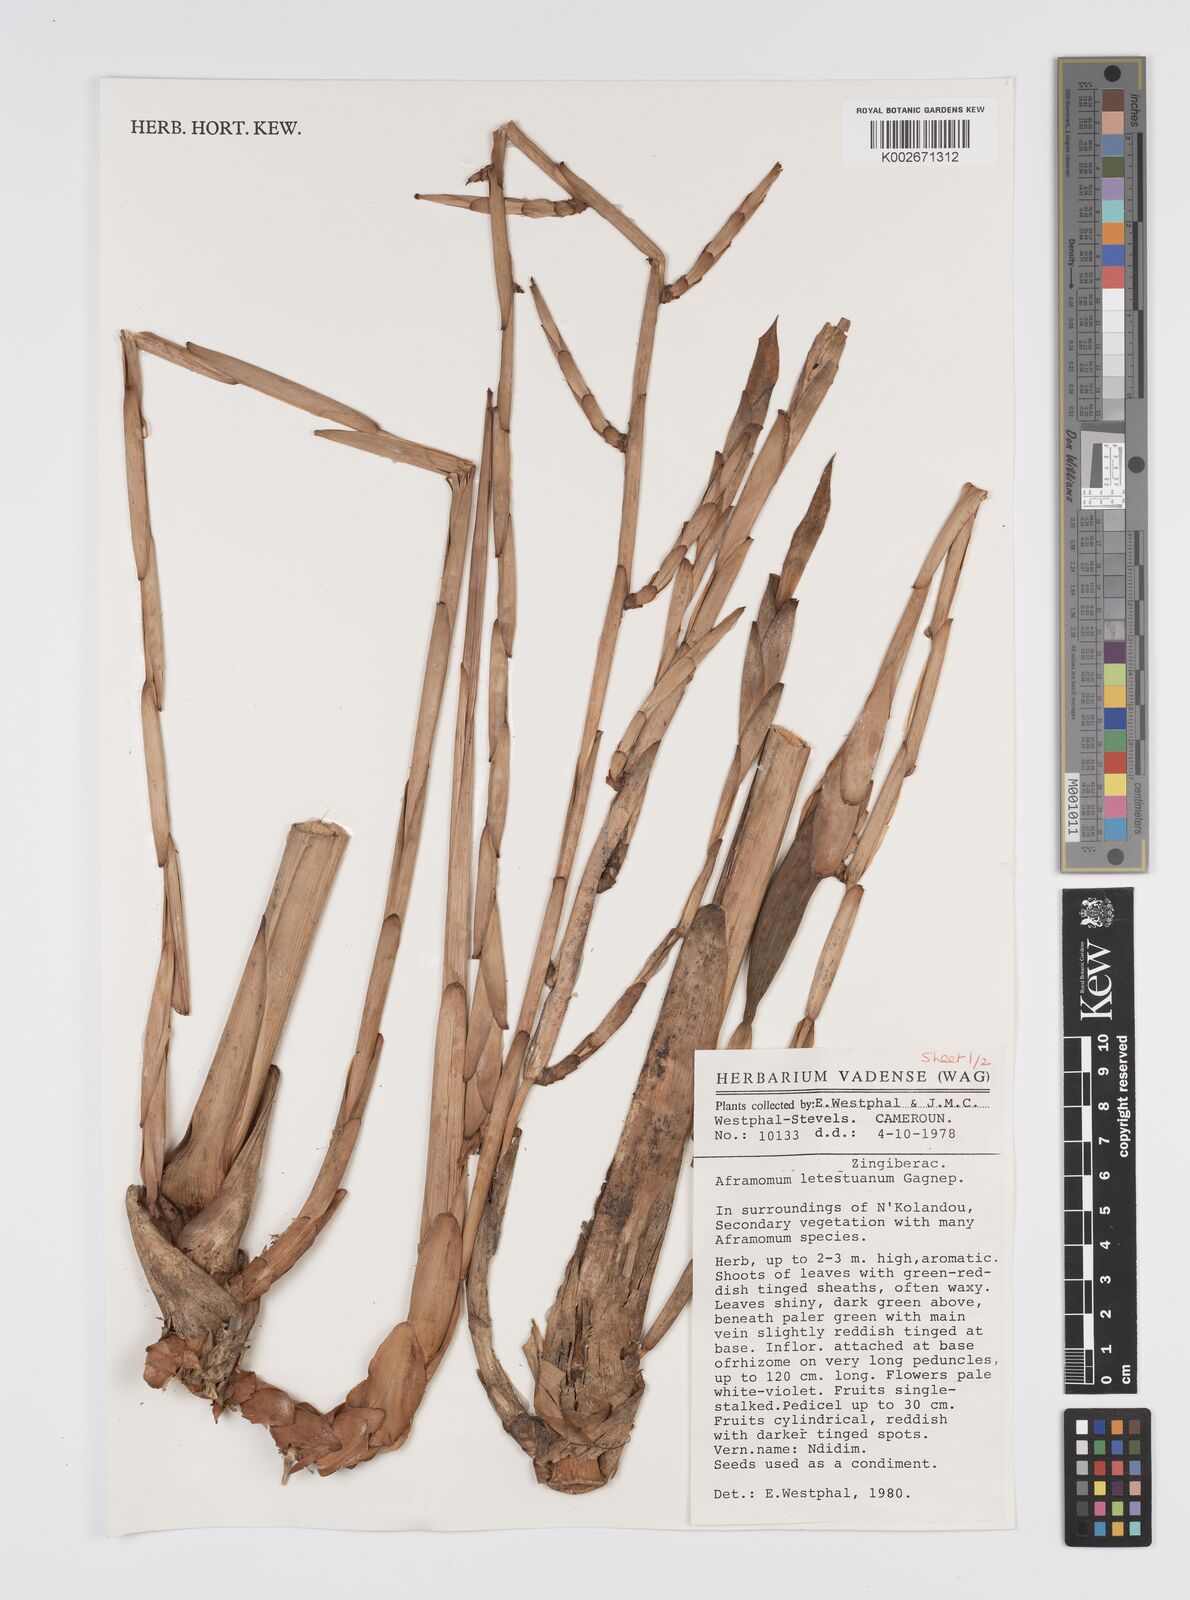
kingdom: Plantae
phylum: Tracheophyta
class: Liliopsida
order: Zingiberales
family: Zingiberaceae
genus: Aframomum
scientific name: Aframomum letestuanum
